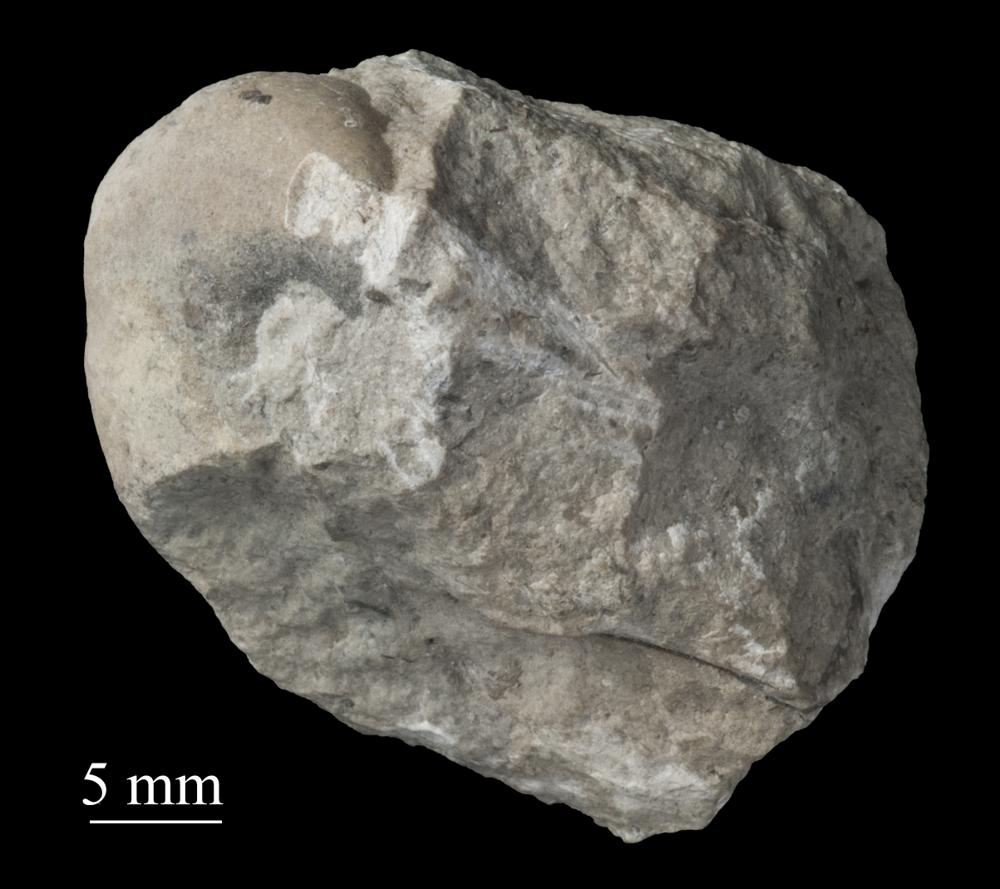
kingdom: Animalia
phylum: Mollusca
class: Gastropoda
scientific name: Gastropoda
